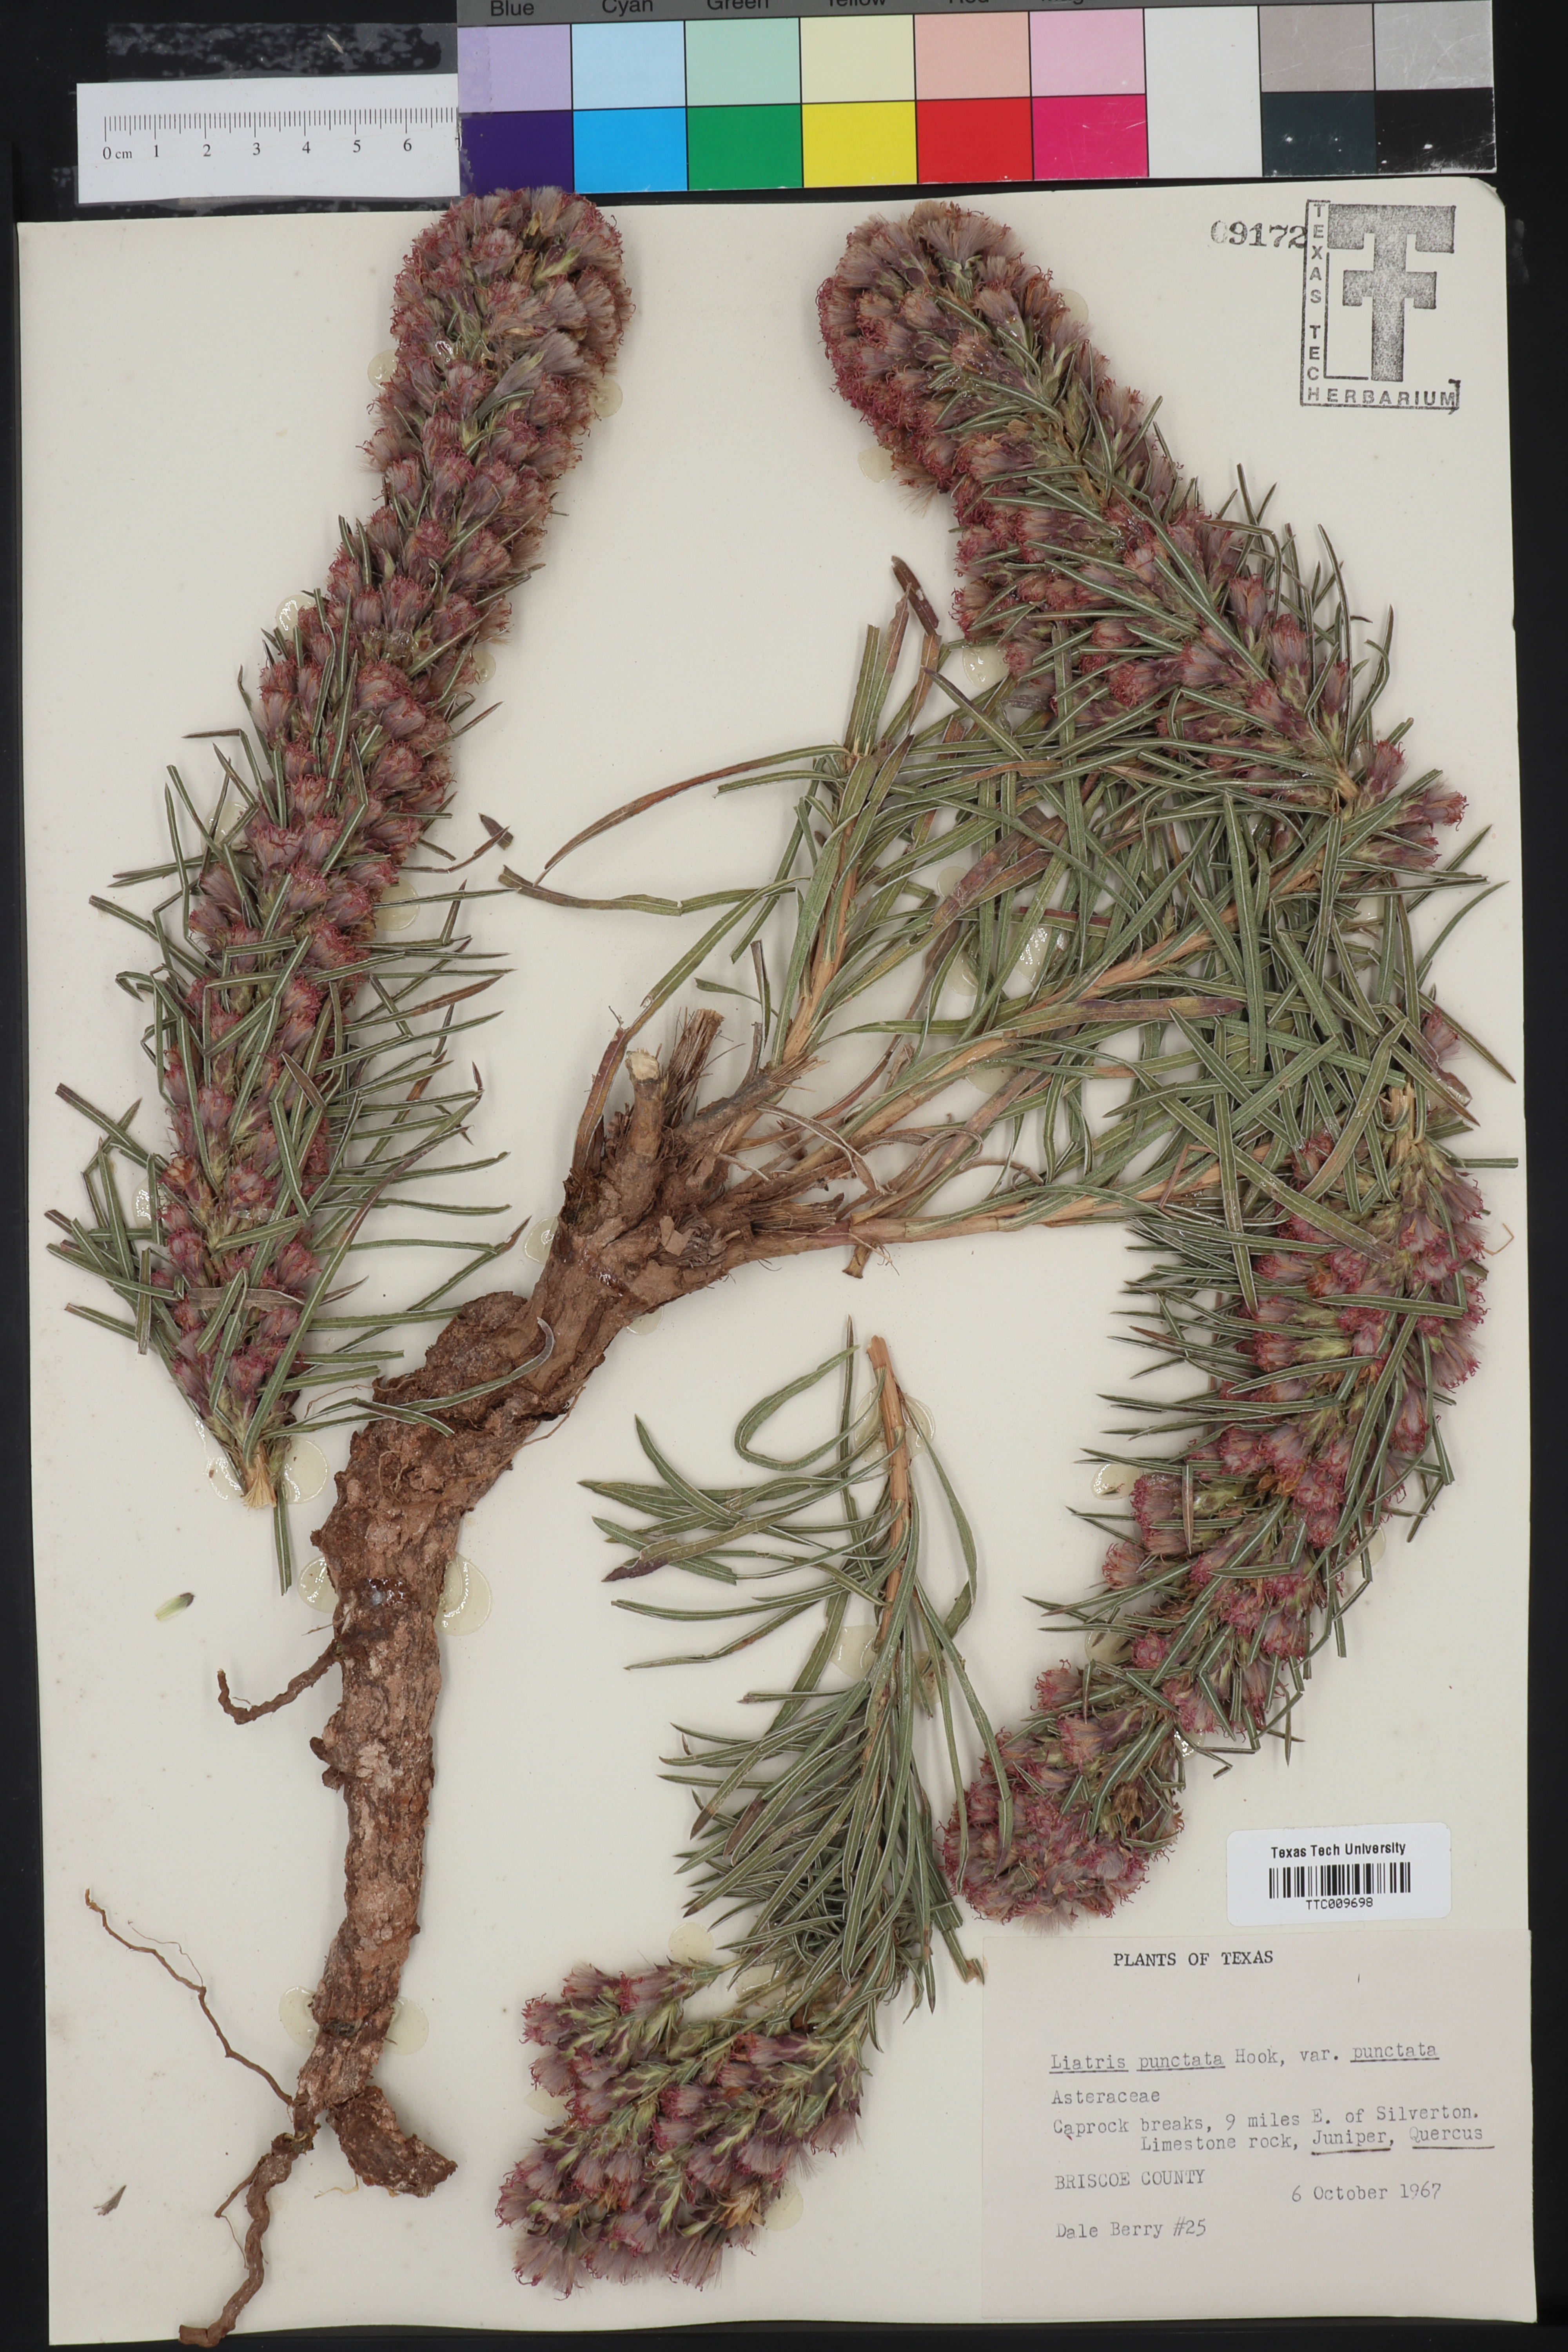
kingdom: Plantae
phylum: Tracheophyta
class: Magnoliopsida
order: Asterales
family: Asteraceae
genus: Liatris
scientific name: Liatris punctata
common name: Dotted gayfeather
